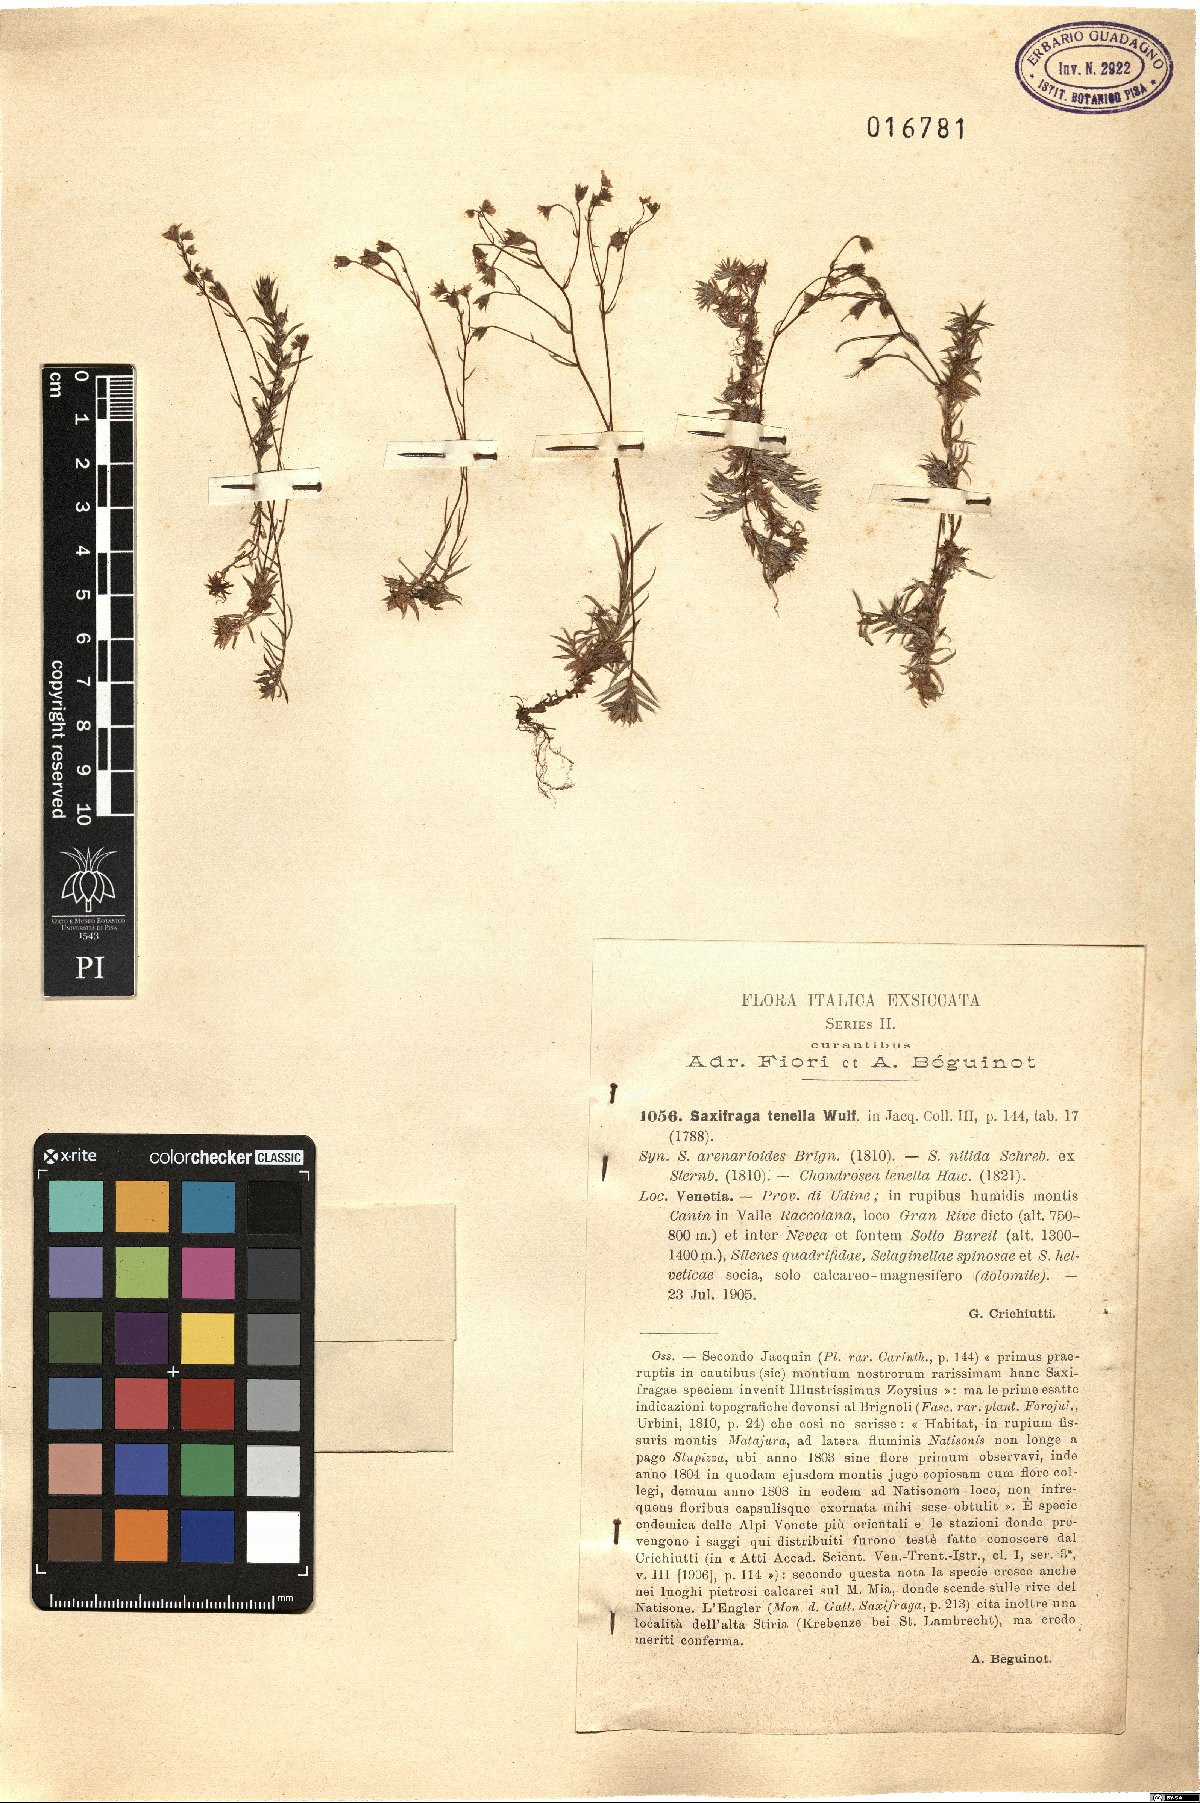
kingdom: Plantae
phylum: Tracheophyta
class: Magnoliopsida
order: Saxifragales
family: Saxifragaceae
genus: Saxifraga
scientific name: Saxifraga tenella
